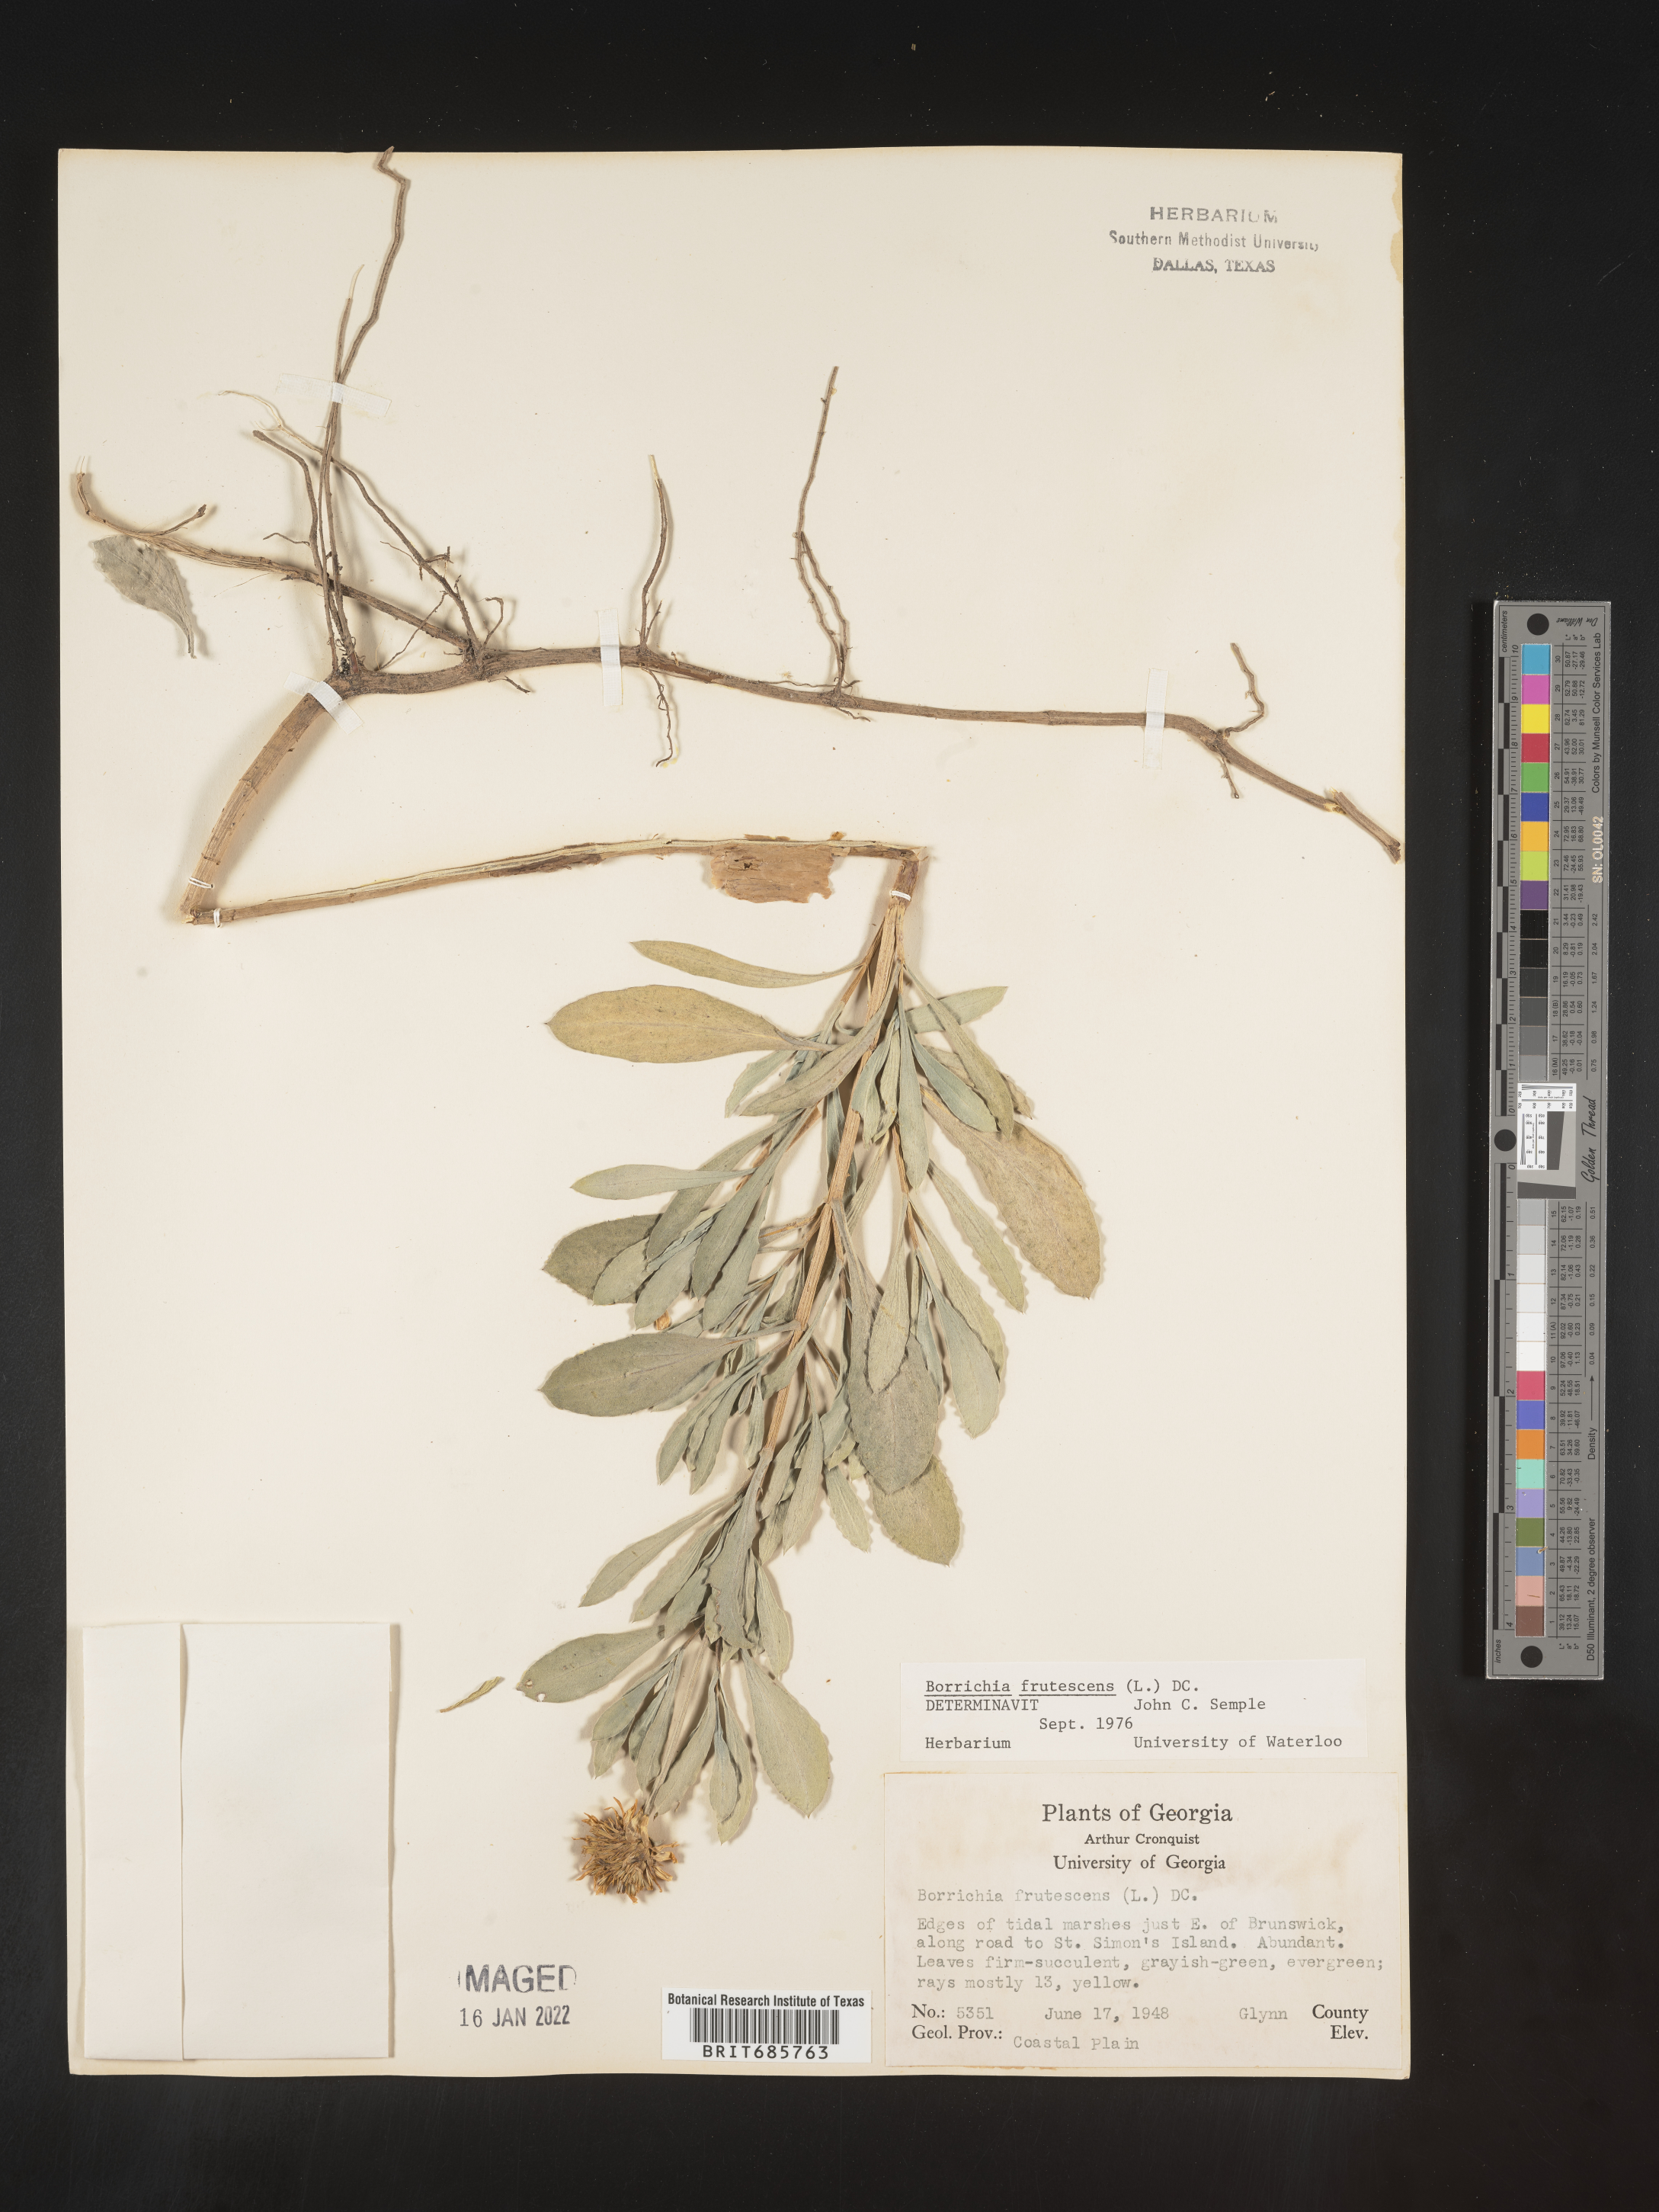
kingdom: Plantae
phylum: Tracheophyta
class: Magnoliopsida
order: Asterales
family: Asteraceae
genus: Borrichia
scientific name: Borrichia frutescens
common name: Sea oxeye
